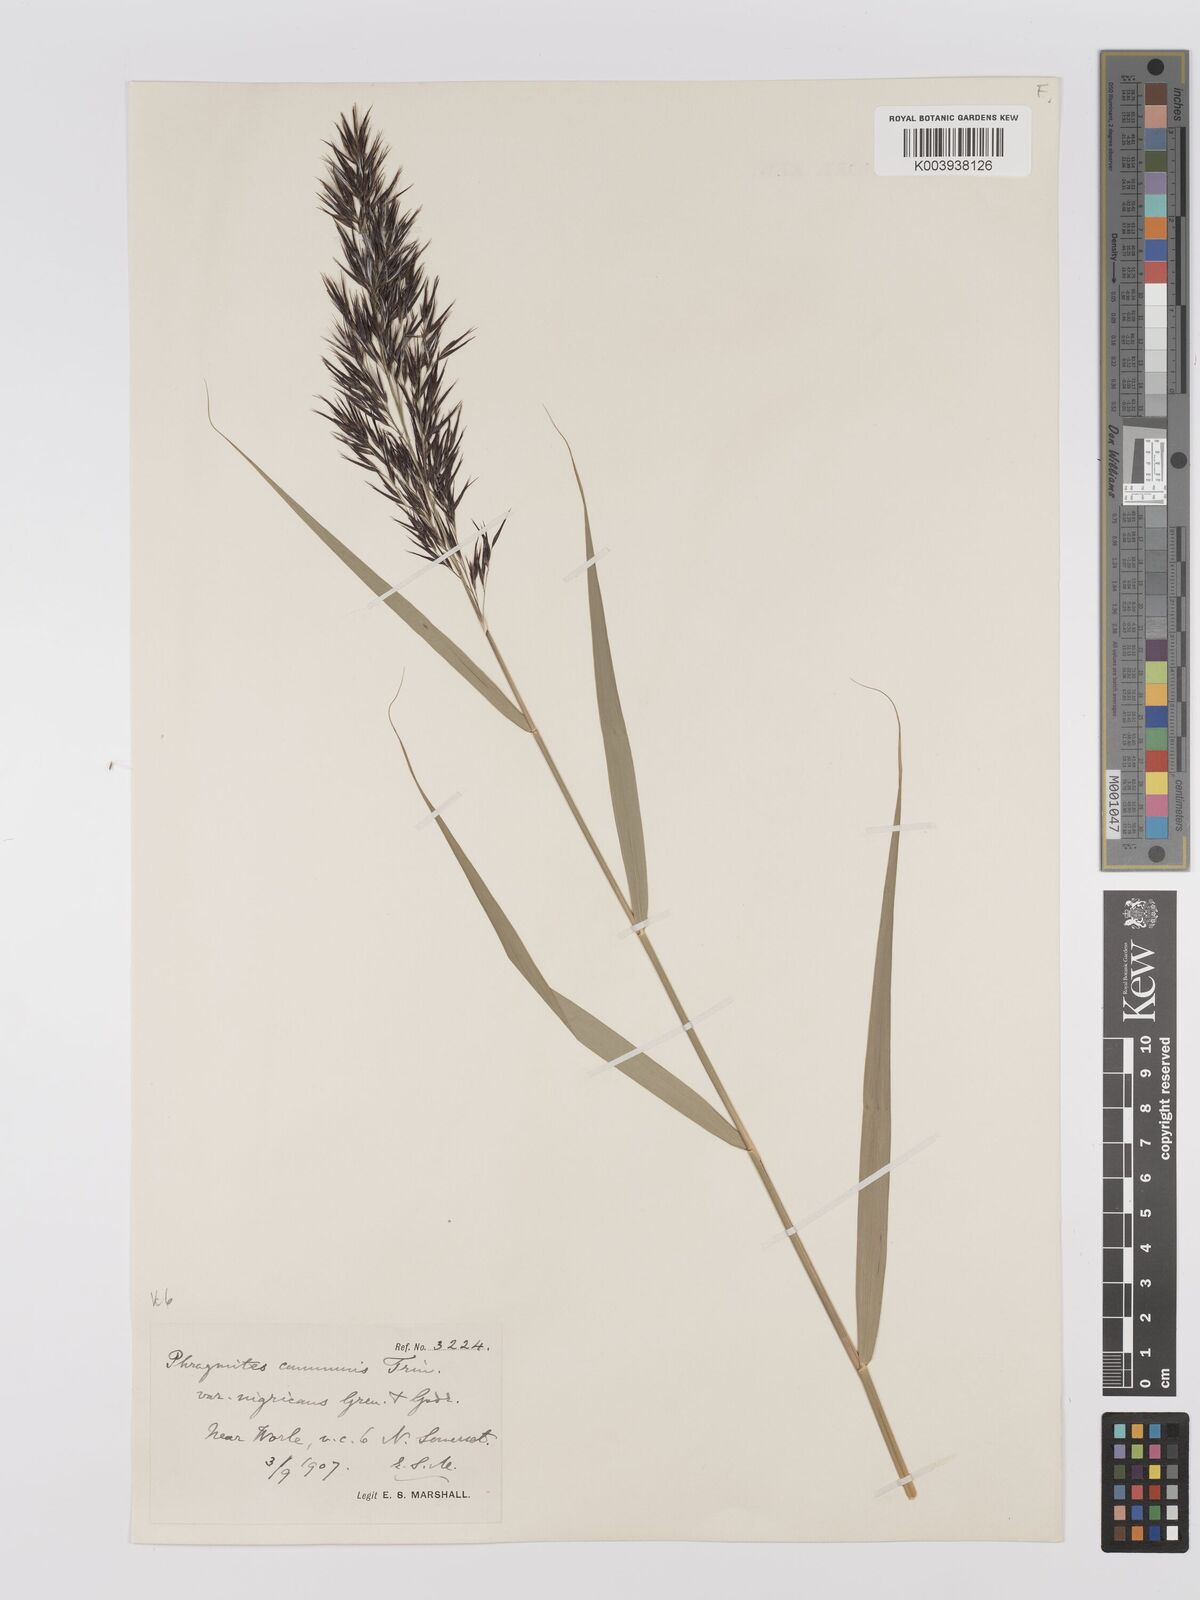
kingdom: Plantae
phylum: Tracheophyta
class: Liliopsida
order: Poales
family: Poaceae
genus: Phragmites
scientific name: Phragmites australis
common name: Common reed
